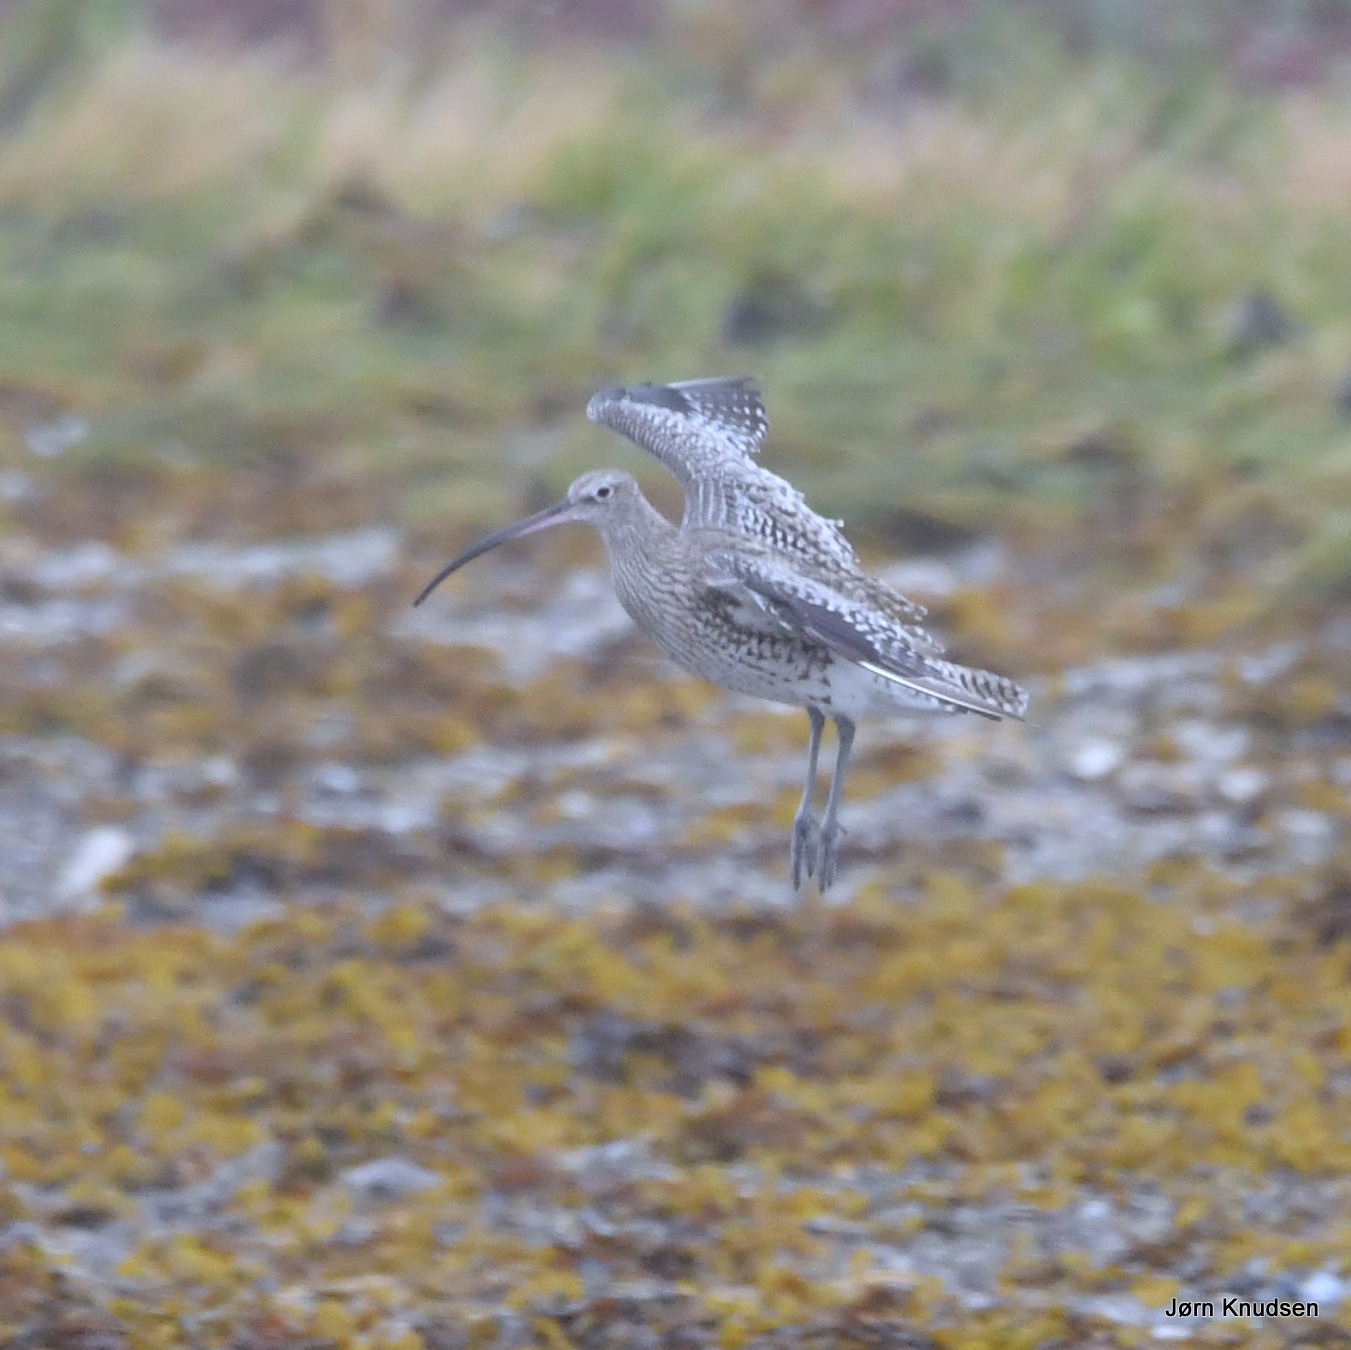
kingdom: Animalia
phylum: Chordata
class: Aves
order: Charadriiformes
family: Scolopacidae
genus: Numenius
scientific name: Numenius arquata
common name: Storspove
